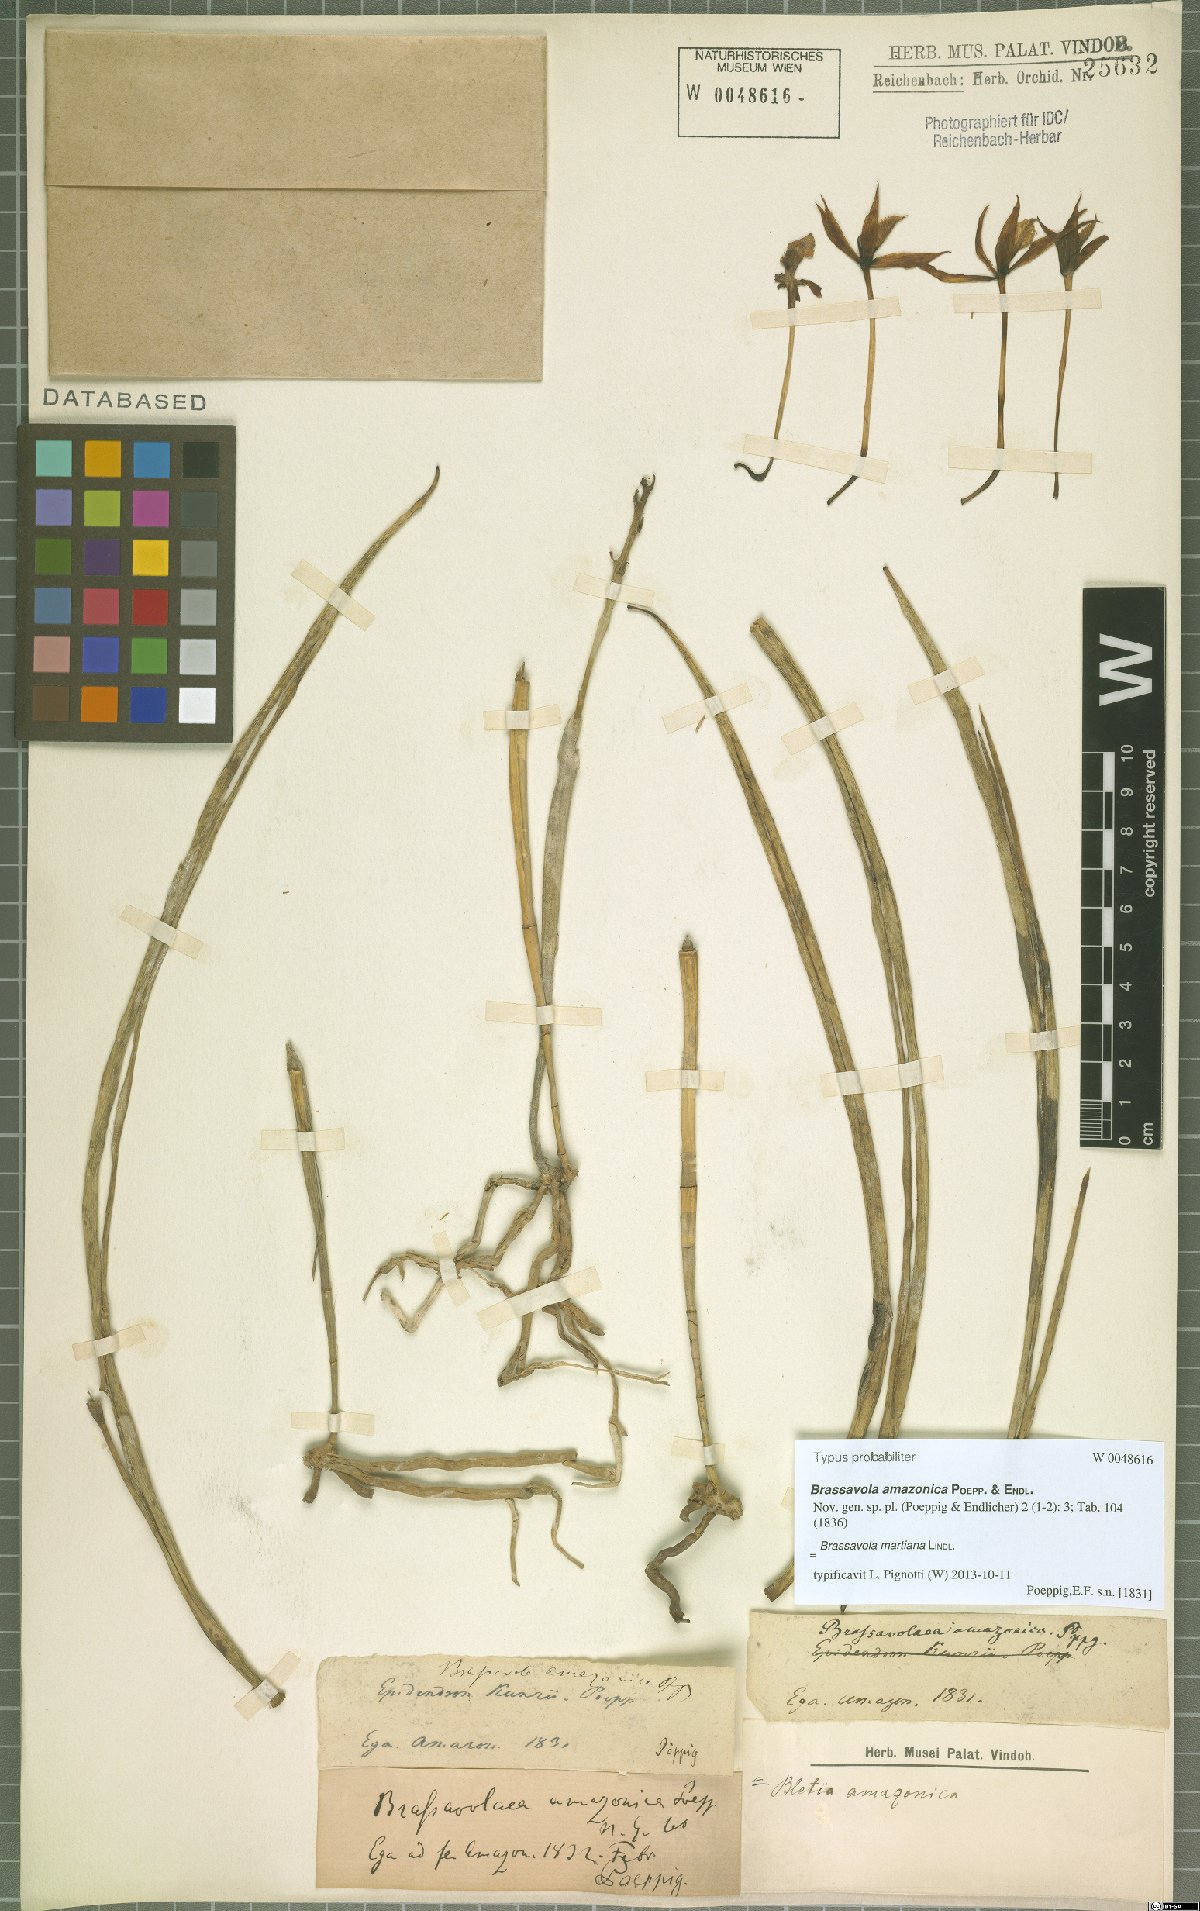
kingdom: Plantae
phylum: Tracheophyta
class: Liliopsida
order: Asparagales
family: Orchidaceae
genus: Brassavola
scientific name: Brassavola martiana
